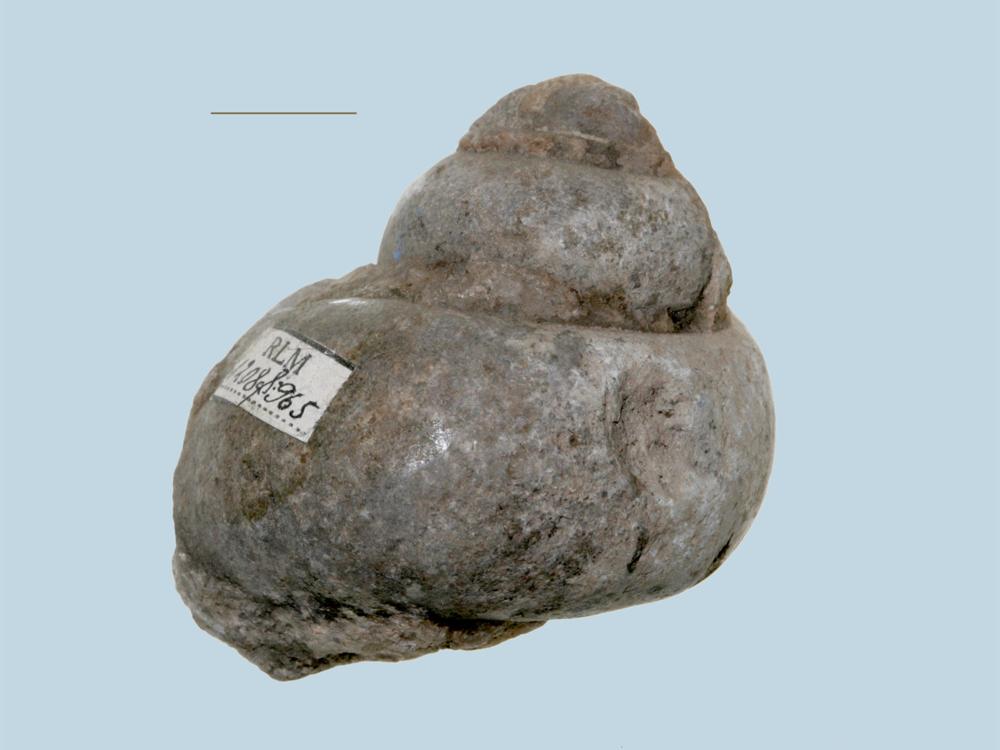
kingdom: Animalia
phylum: Mollusca
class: Gastropoda
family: Holopeidae
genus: Holopea
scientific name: Holopea
